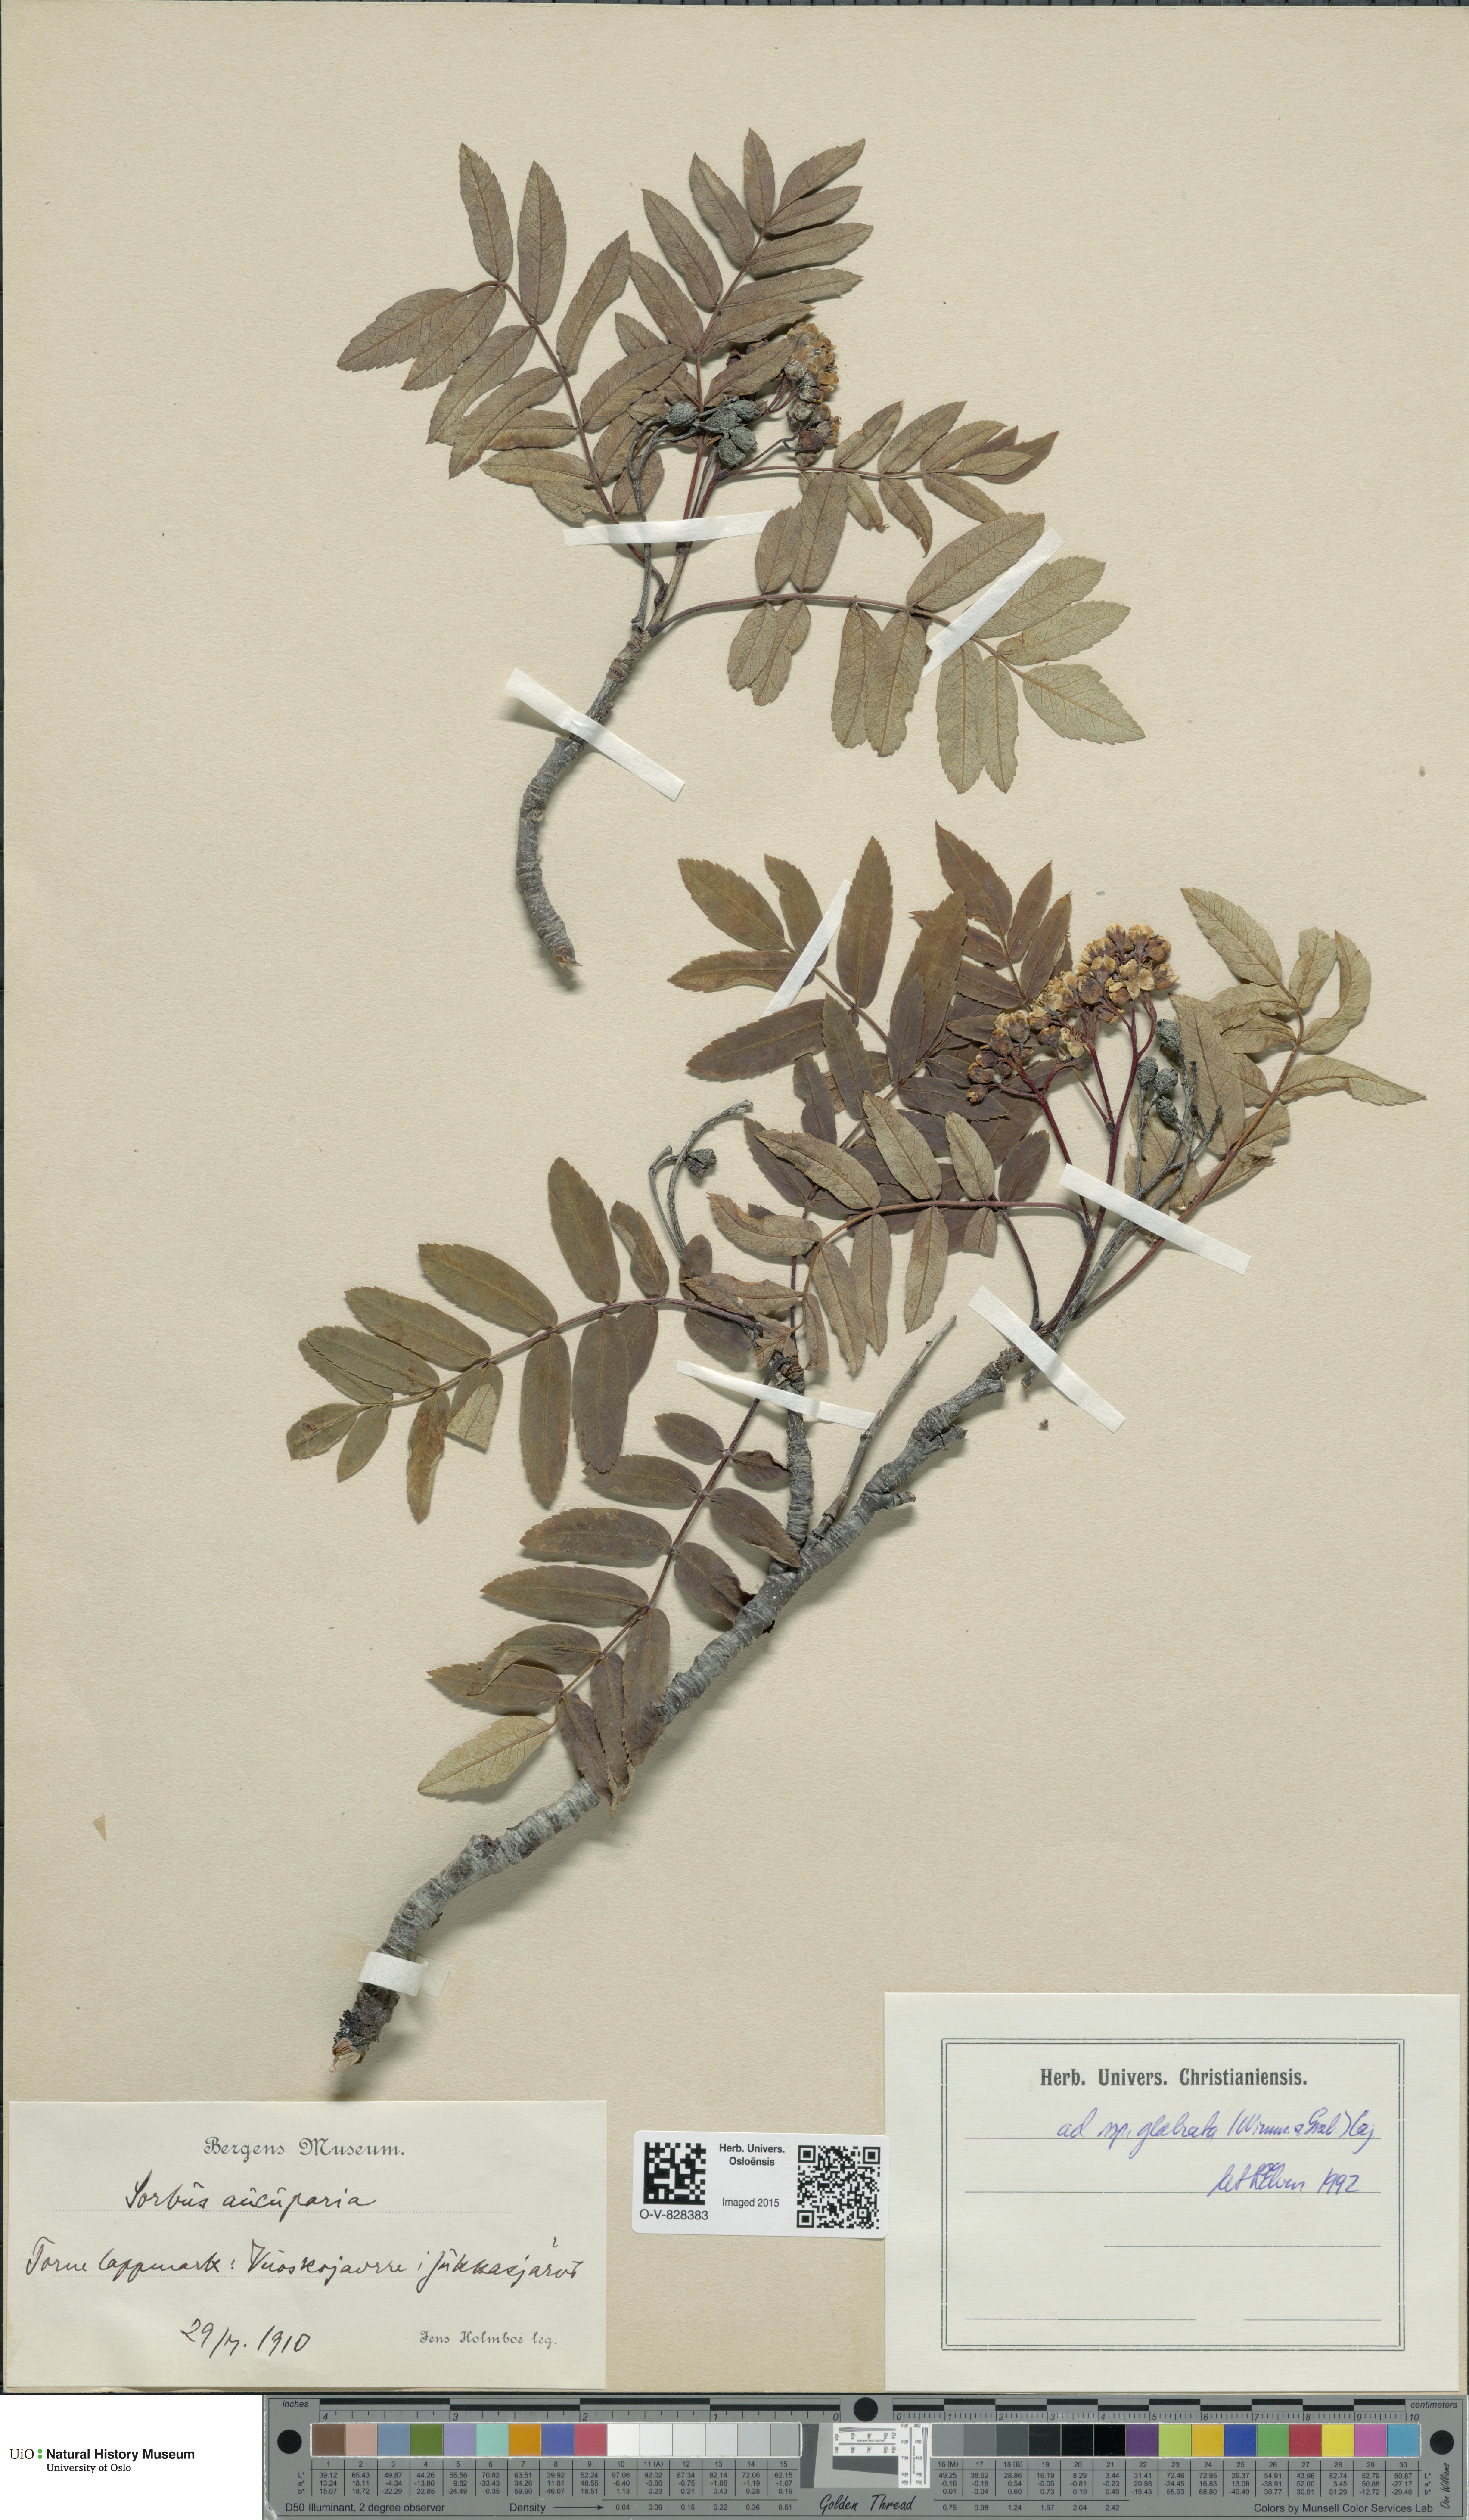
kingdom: Plantae
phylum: Tracheophyta
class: Magnoliopsida
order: Rosales
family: Rosaceae
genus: Sorbus
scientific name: Sorbus aucuparia
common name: Rowan
